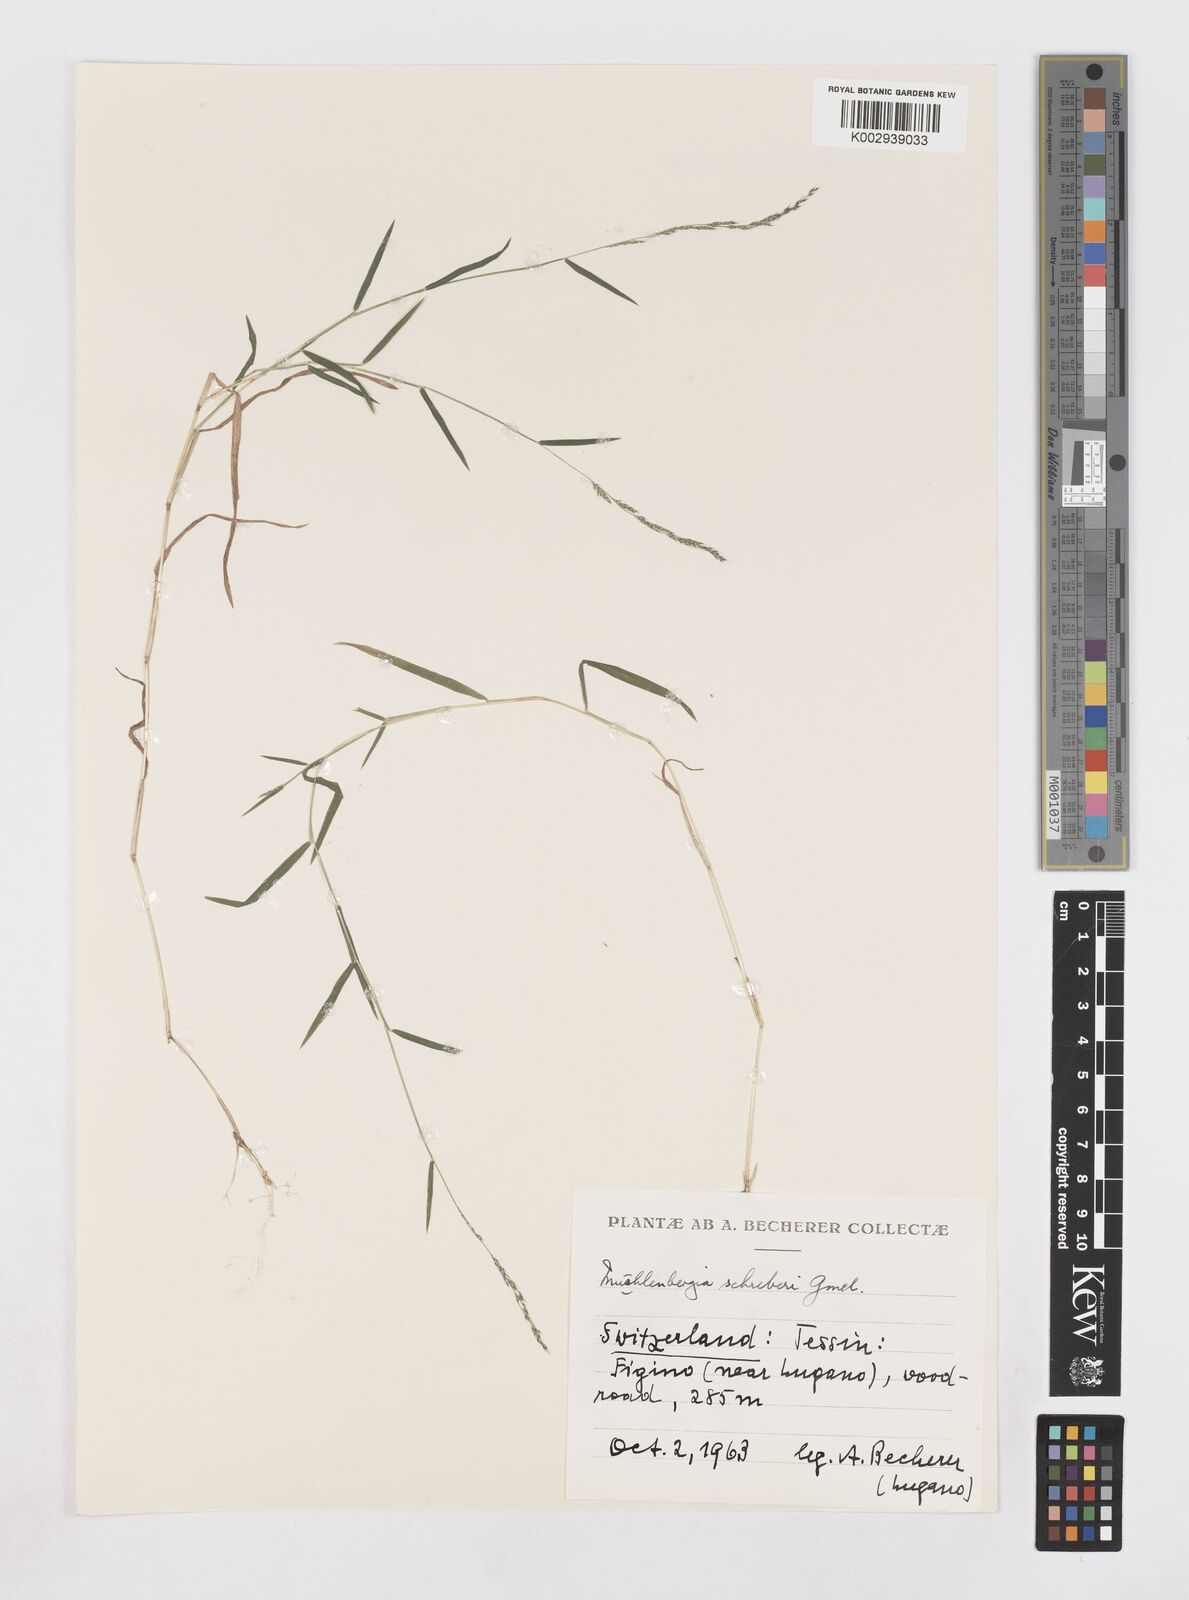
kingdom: Plantae
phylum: Tracheophyta
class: Liliopsida
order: Poales
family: Poaceae
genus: Muhlenbergia
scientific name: Muhlenbergia schreberi
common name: Nimblewill
